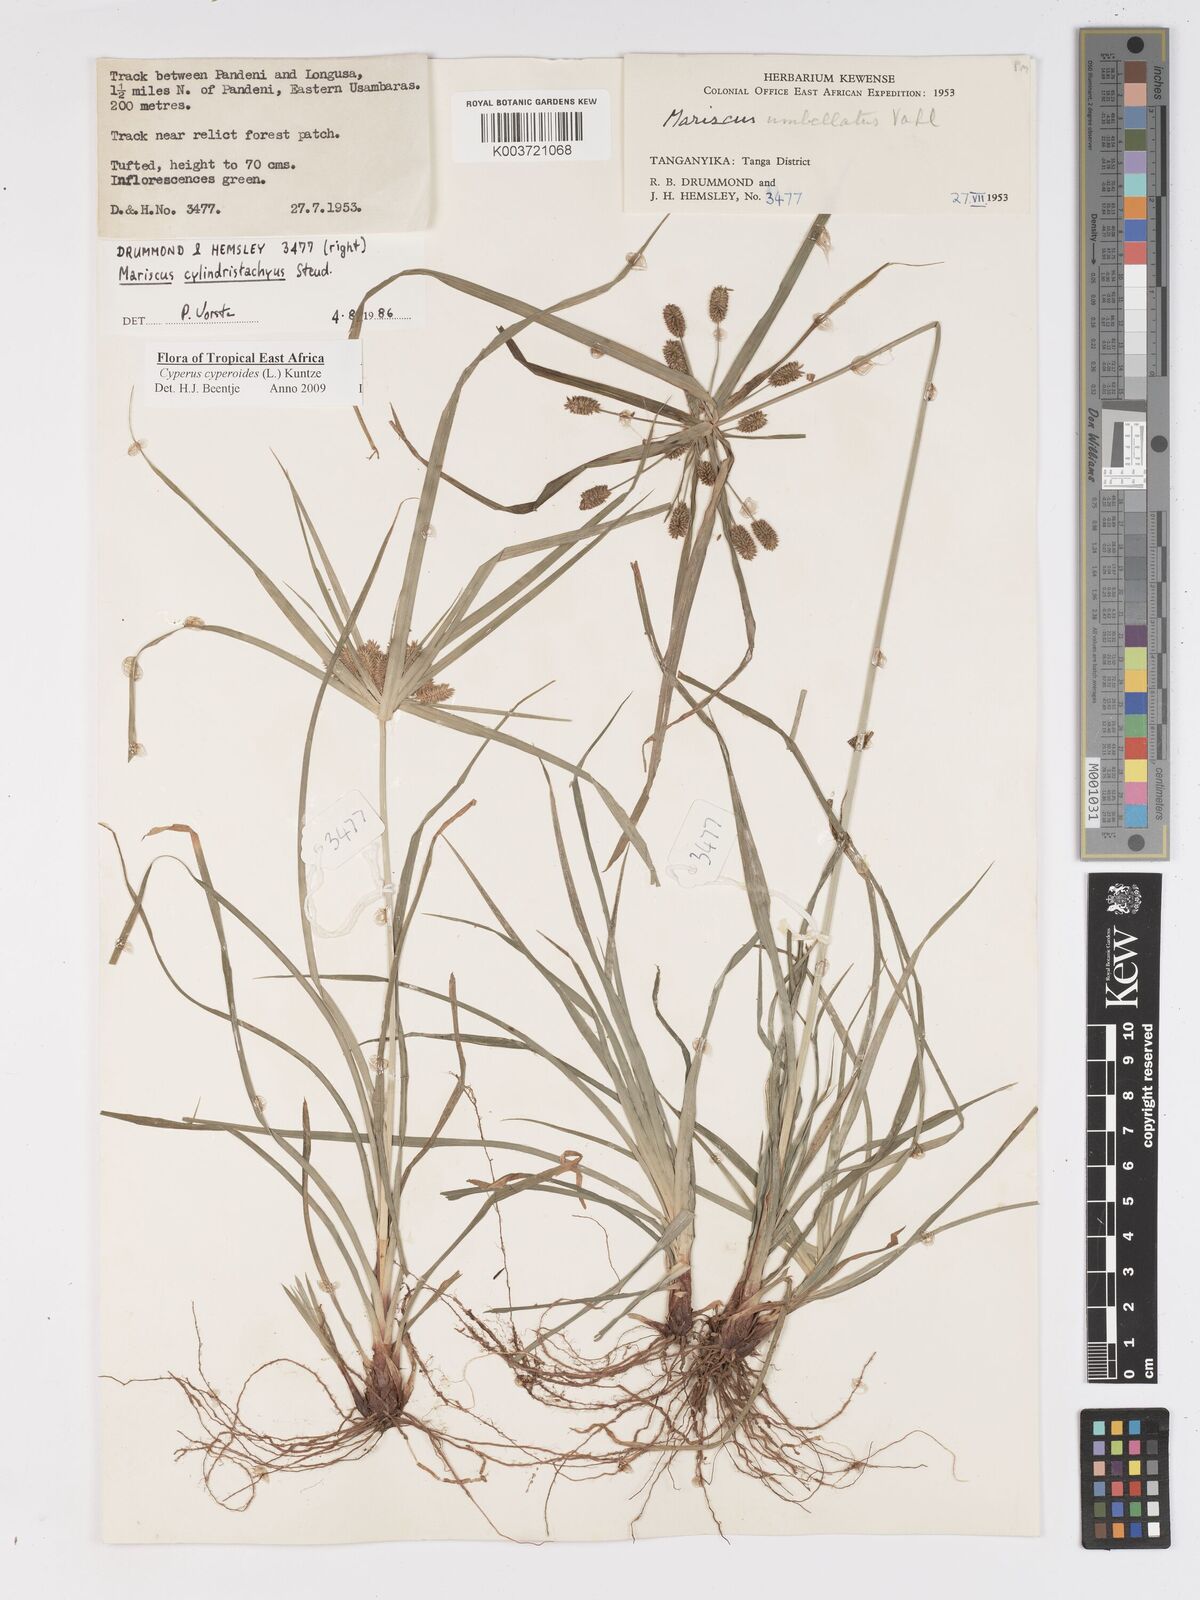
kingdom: Plantae
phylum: Tracheophyta
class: Liliopsida
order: Poales
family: Cyperaceae
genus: Cyperus
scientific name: Cyperus cyperoides
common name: Pacific island flat sedge
